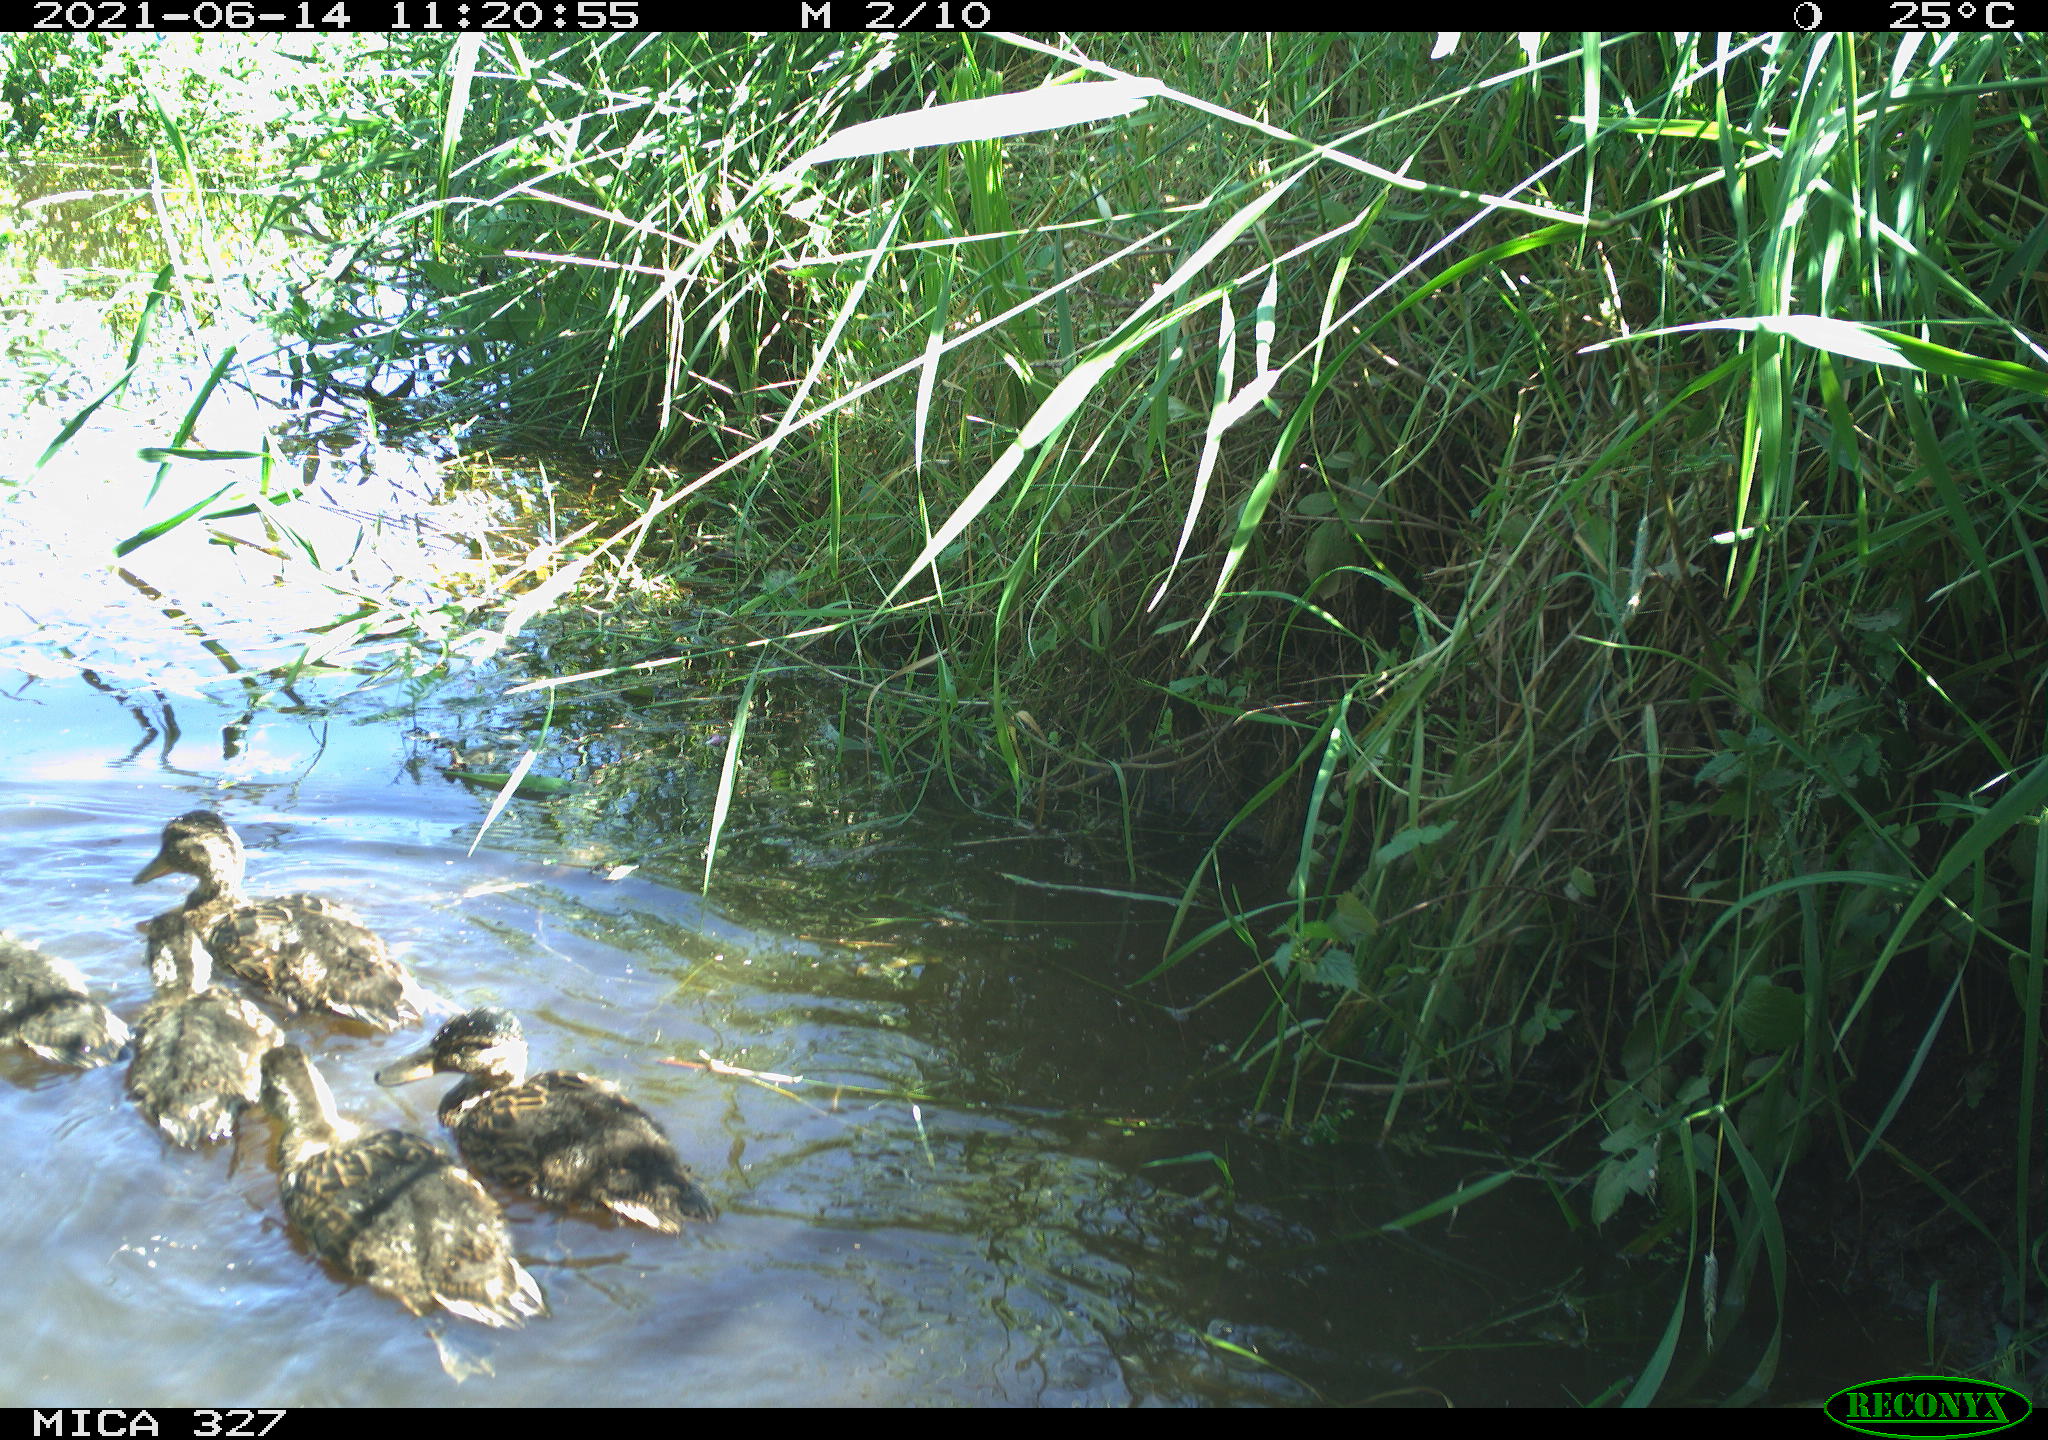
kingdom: Animalia
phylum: Chordata
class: Aves
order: Anseriformes
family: Anatidae
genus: Anas
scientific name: Anas platyrhynchos
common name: Mallard
